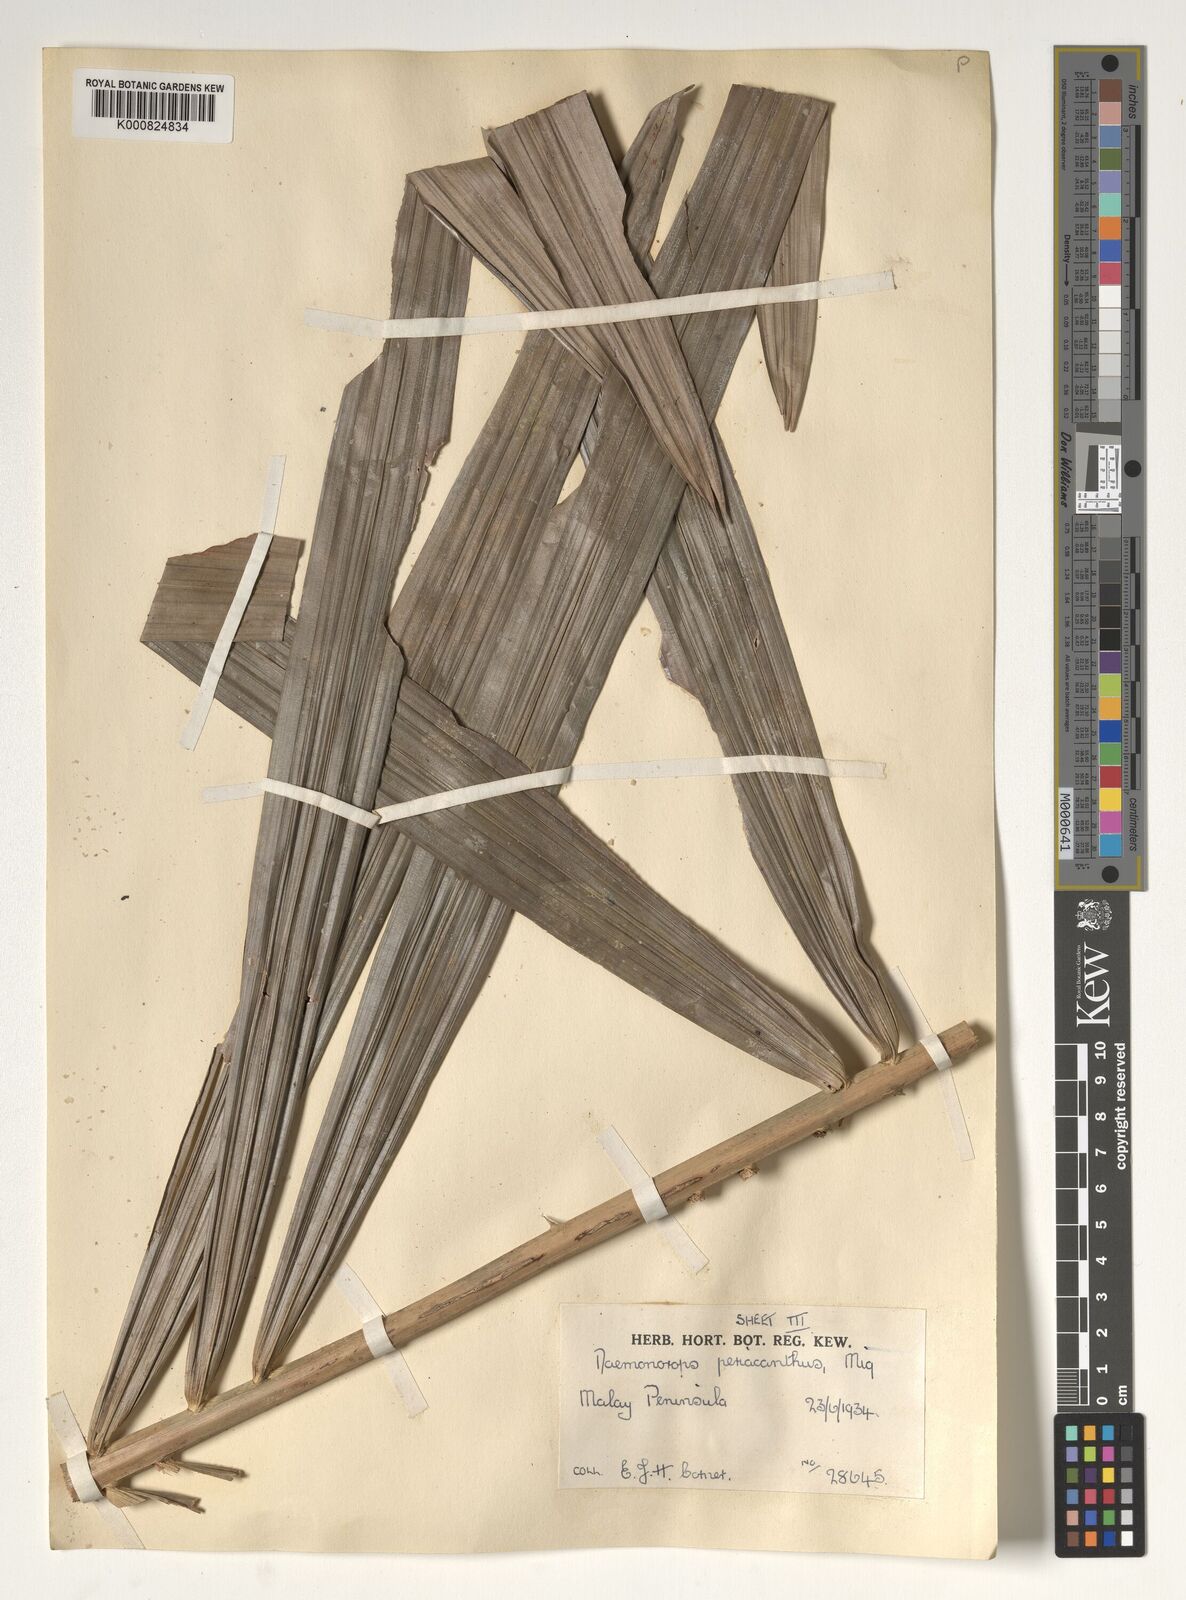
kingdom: Plantae
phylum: Tracheophyta
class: Liliopsida
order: Arecales
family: Arecaceae
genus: Calamus
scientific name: Calamus periacanthus
